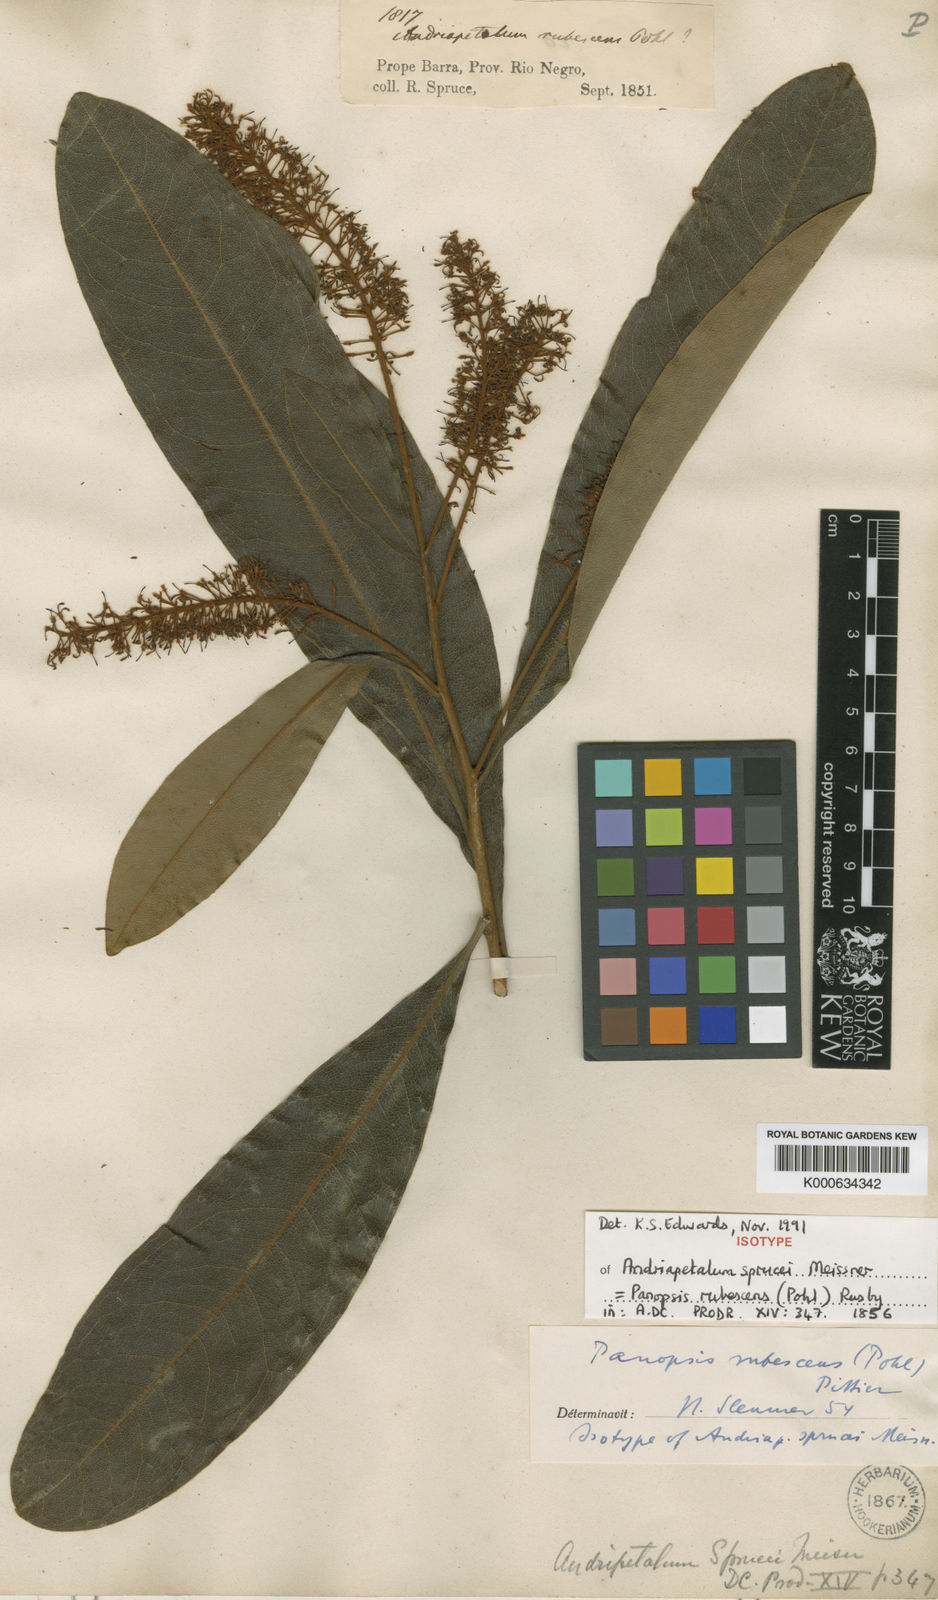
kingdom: Plantae
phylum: Tracheophyta
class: Magnoliopsida
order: Proteales
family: Proteaceae
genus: Panopsis
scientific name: Panopsis
